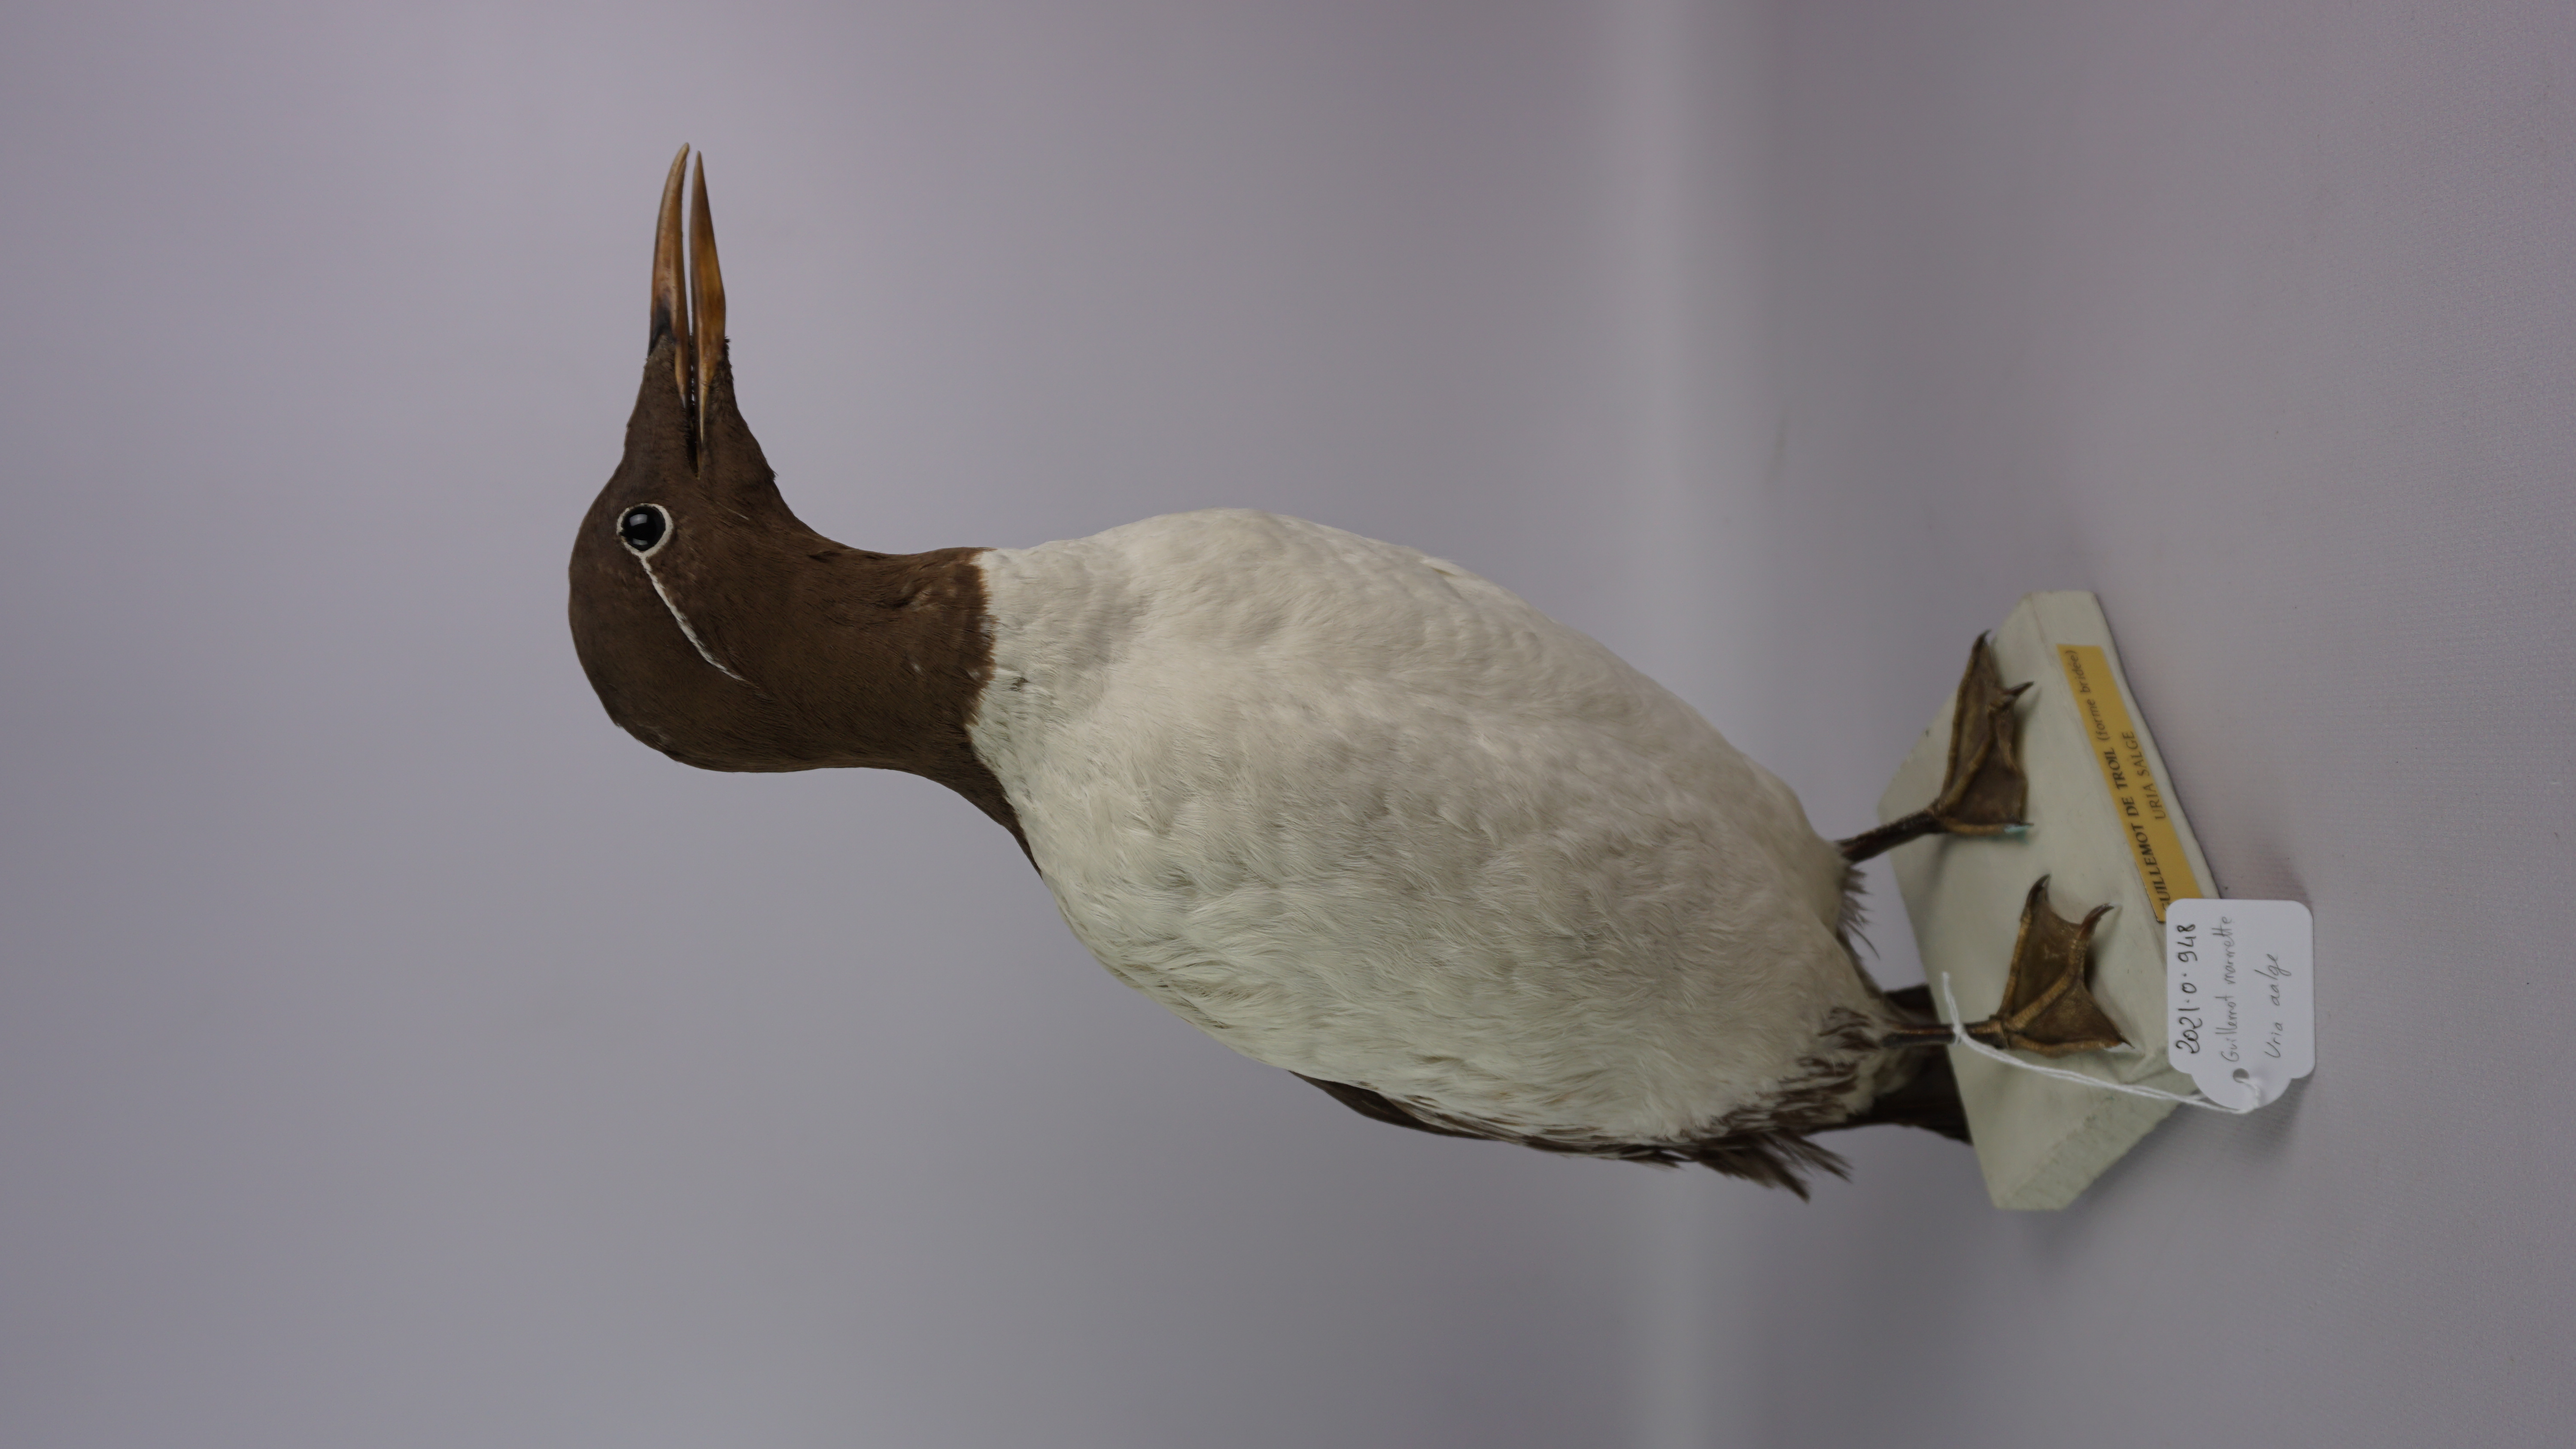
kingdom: Animalia
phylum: Chordata
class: Aves
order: Charadriiformes
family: Alcidae
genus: Uria
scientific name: Uria aalge
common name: Common murre
